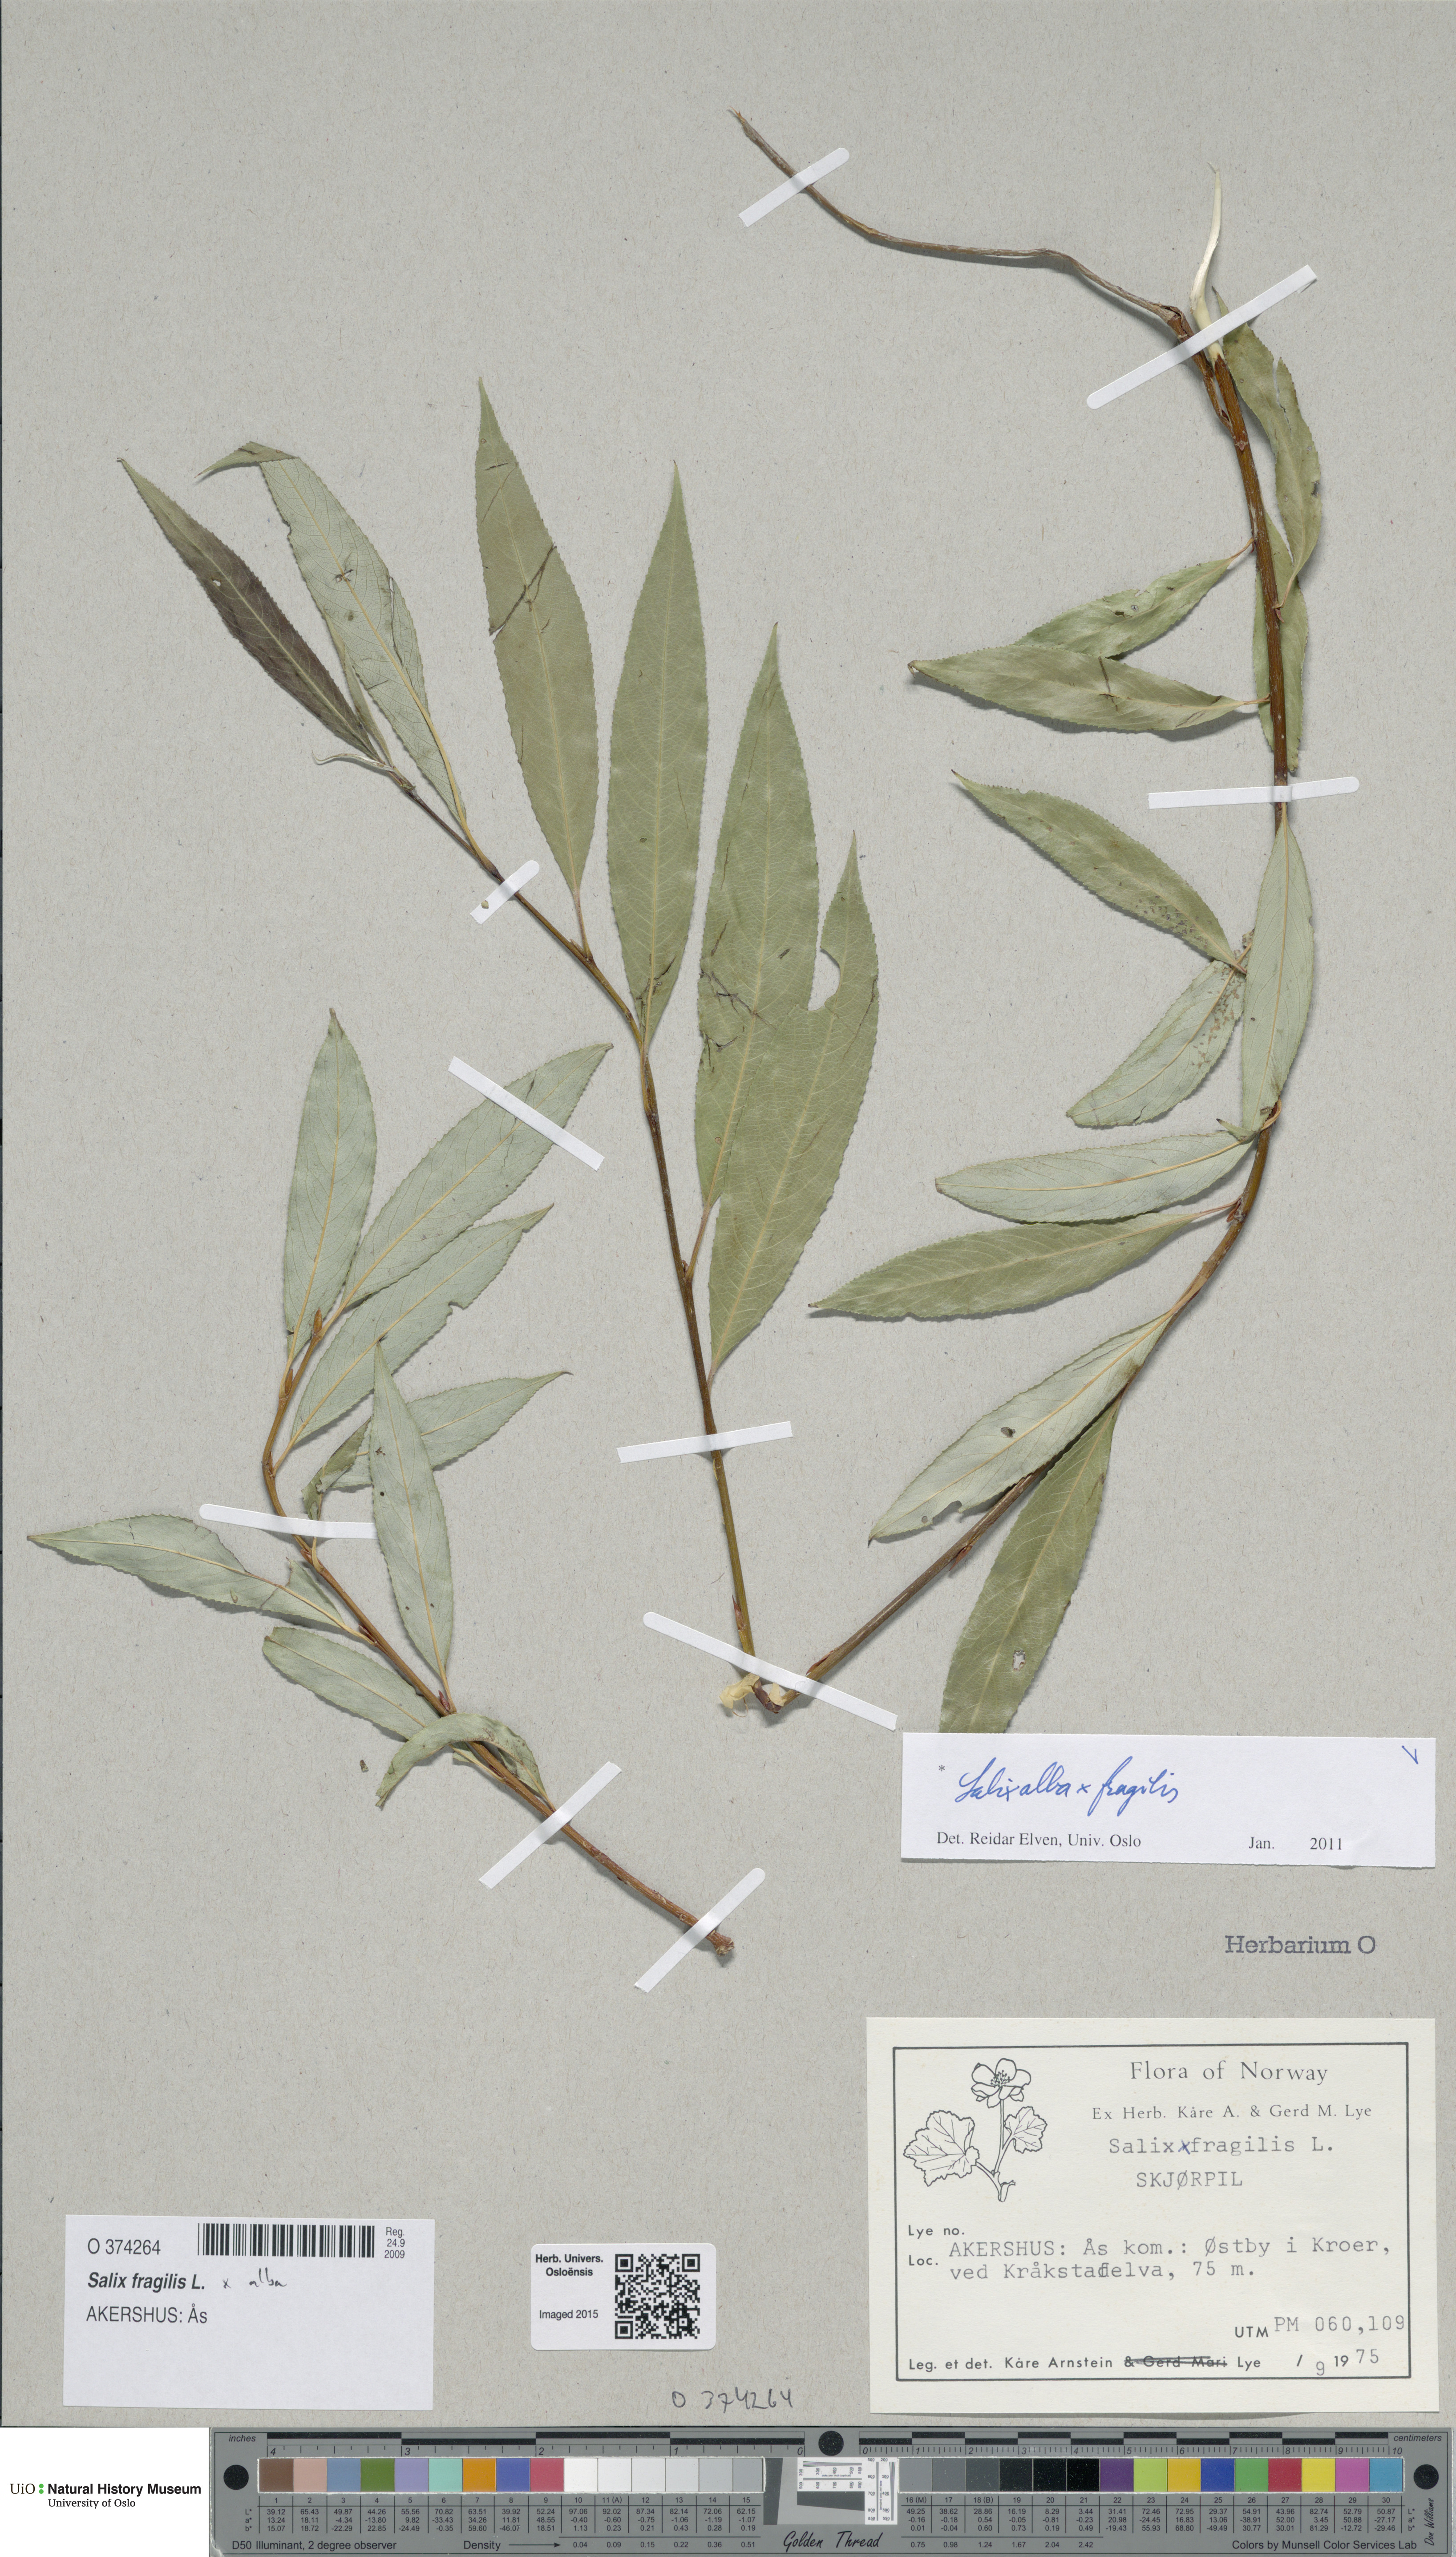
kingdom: Plantae
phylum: Tracheophyta
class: Magnoliopsida
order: Malpighiales
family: Salicaceae
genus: Salix
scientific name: Salix
